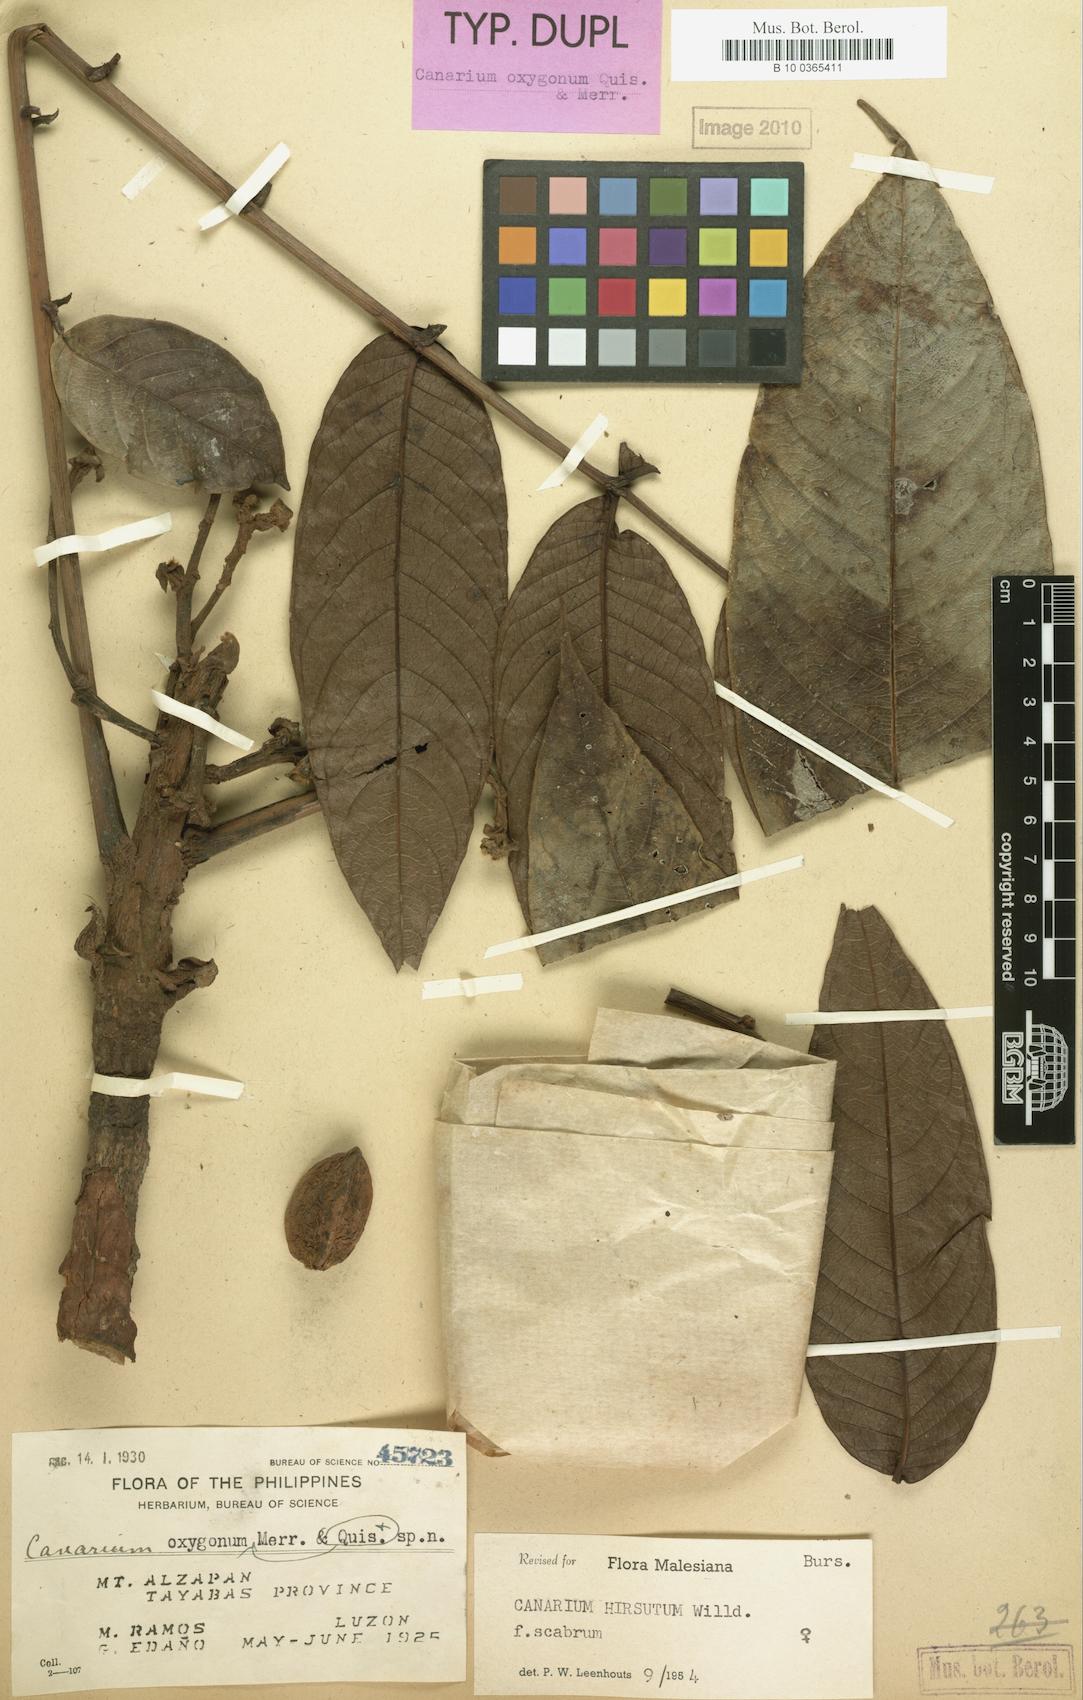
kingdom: Plantae
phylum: Tracheophyta
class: Magnoliopsida
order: Sapindales
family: Burseraceae
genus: Canarium
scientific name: Canarium hirsutum
